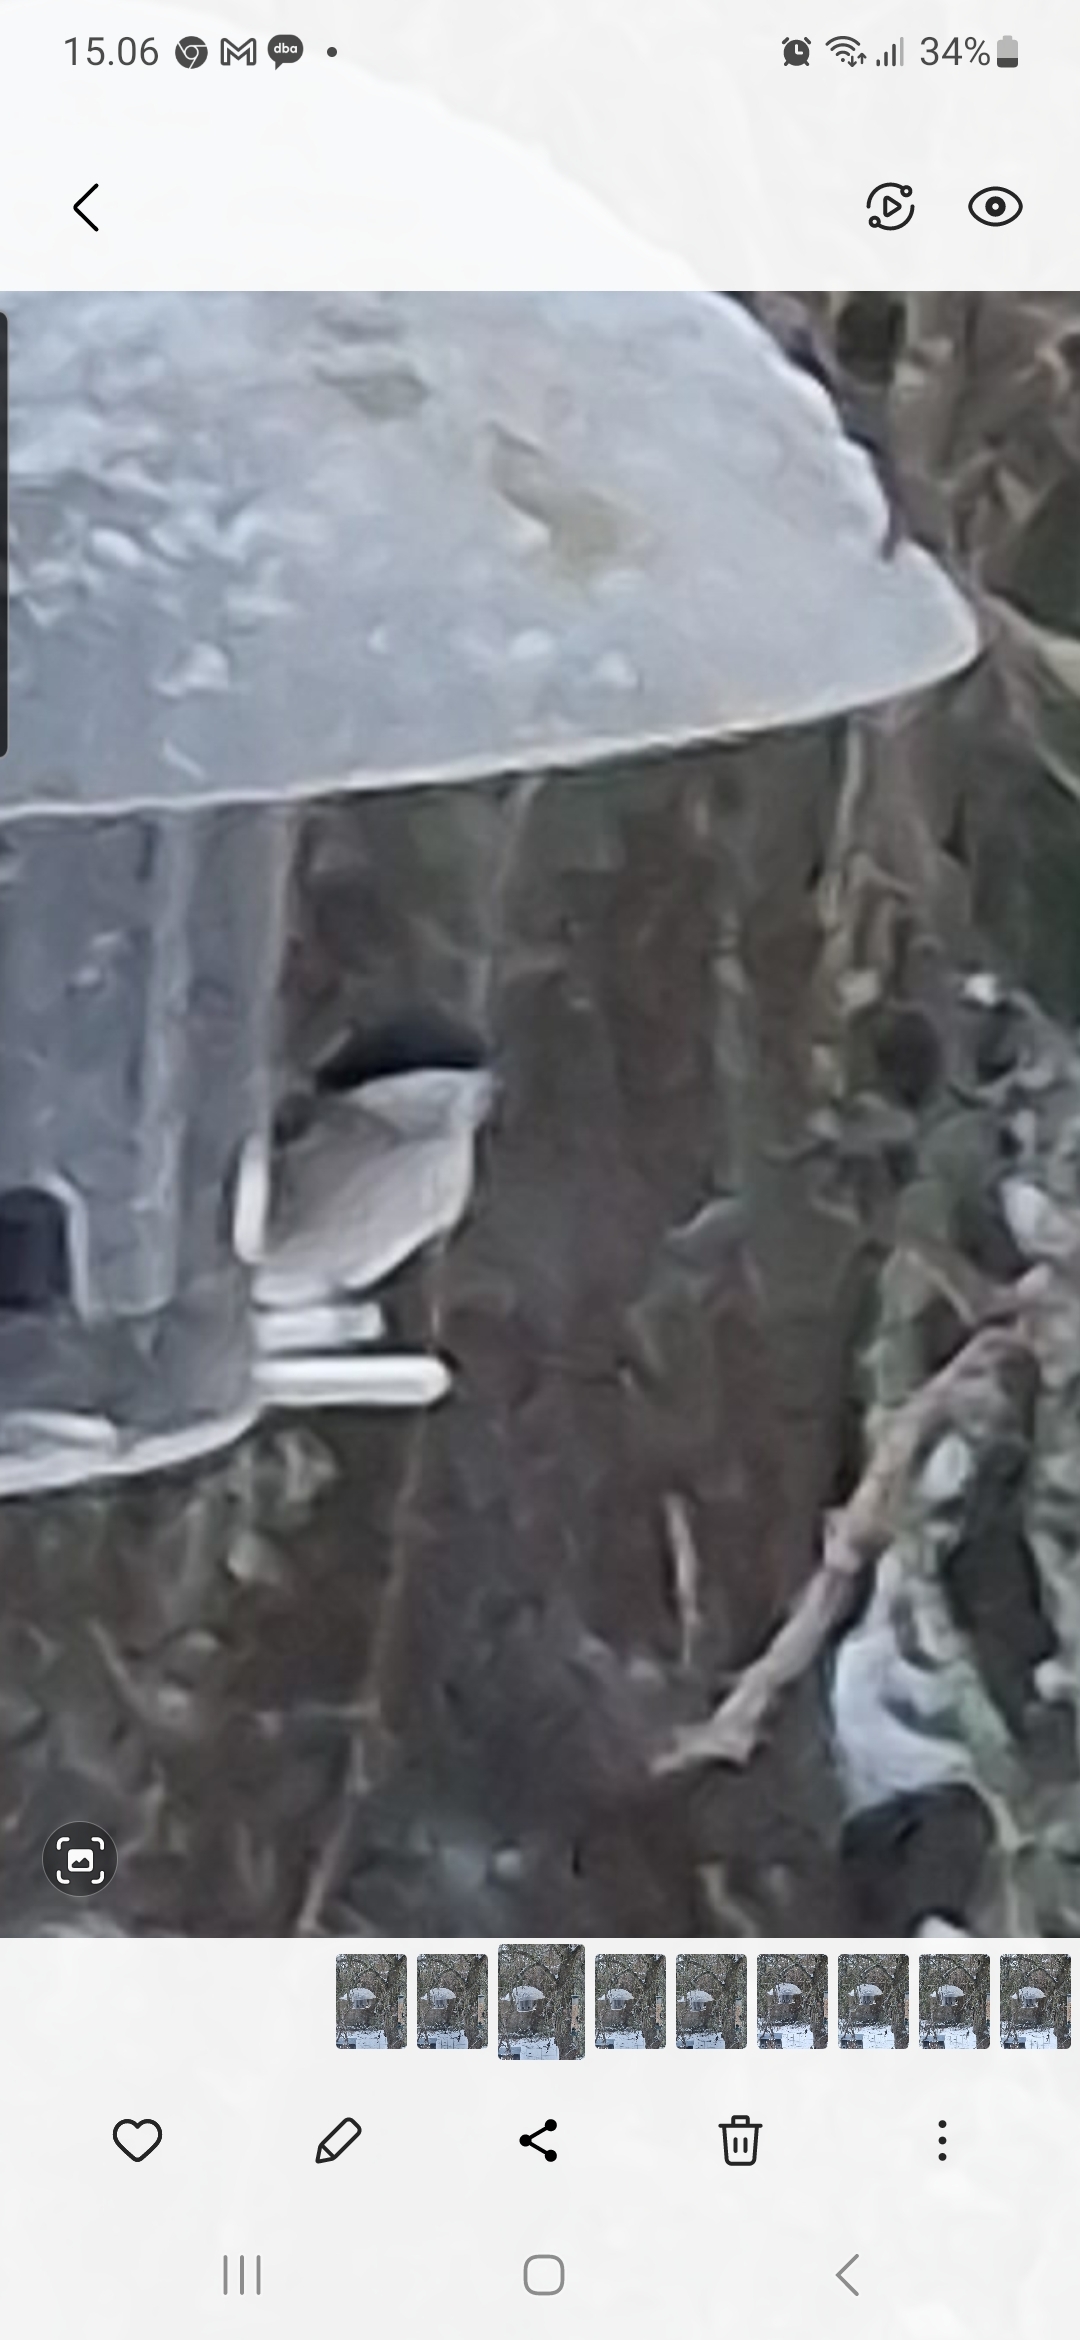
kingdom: Animalia
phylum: Chordata
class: Aves
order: Passeriformes
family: Paridae
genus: Poecile
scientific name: Poecile palustris
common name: Sumpmejse
